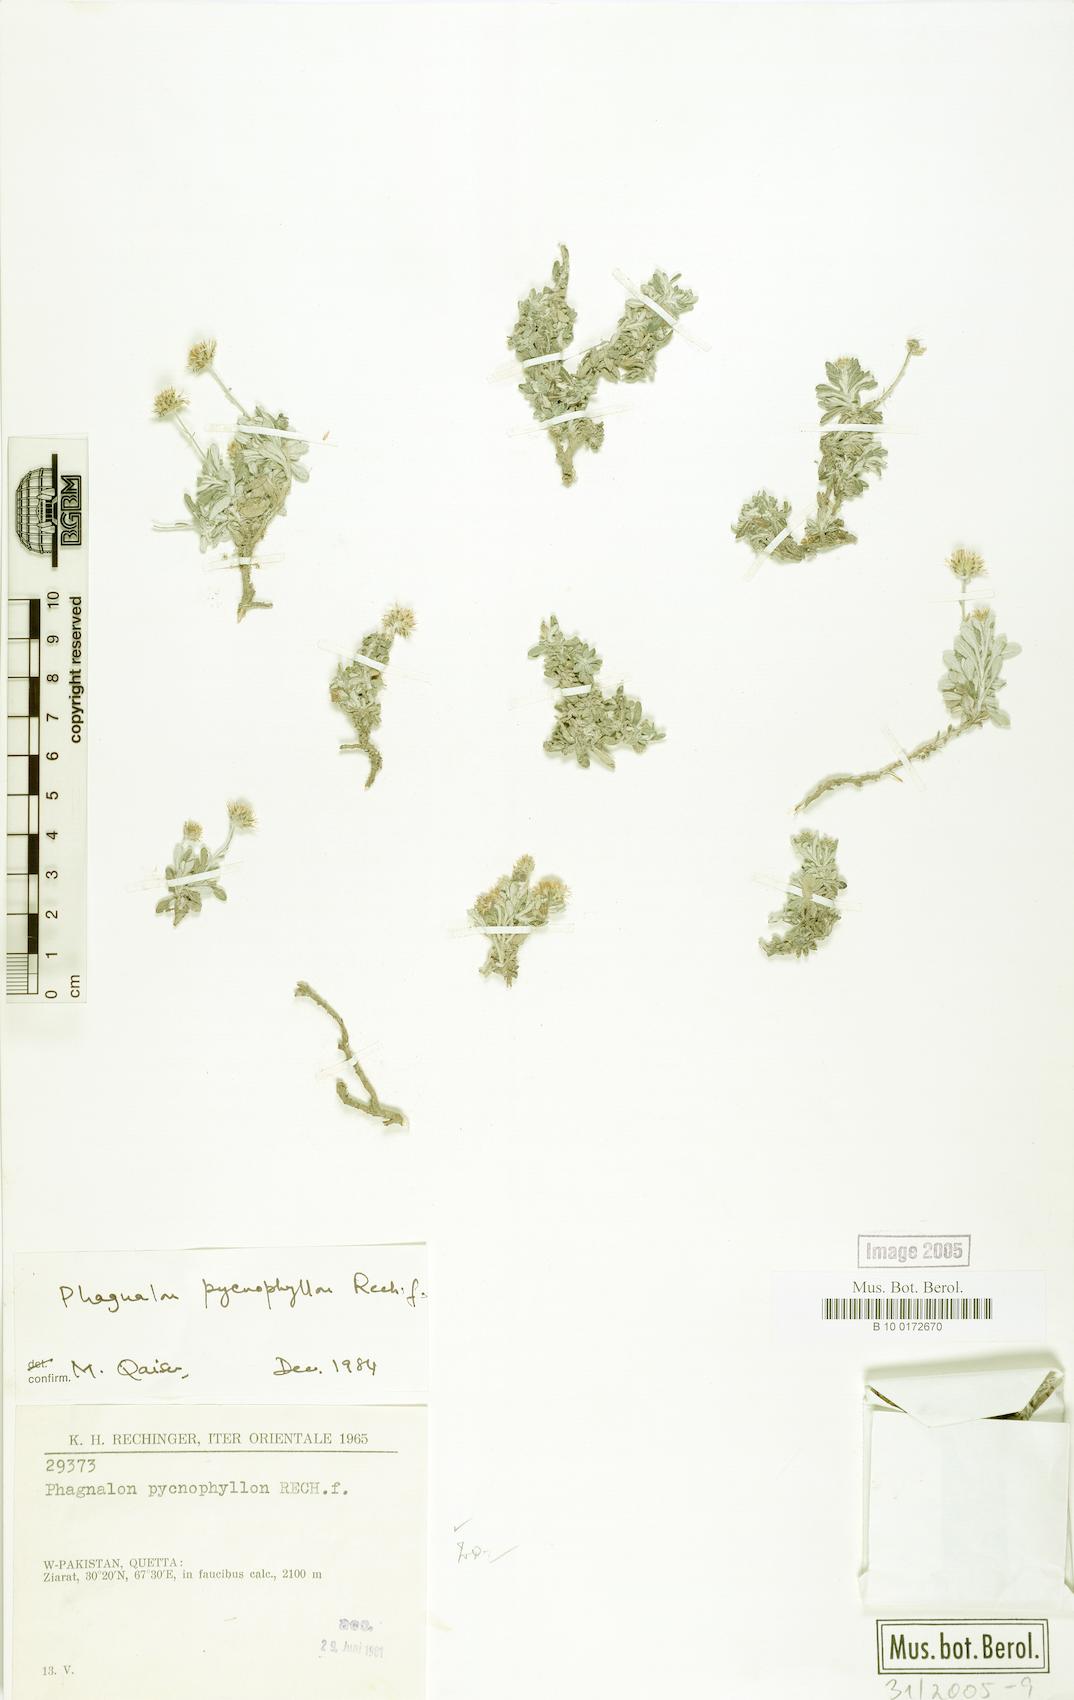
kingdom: Plantae
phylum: Tracheophyta
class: Magnoliopsida
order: Asterales
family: Asteraceae
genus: Phagnalon
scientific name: Phagnalon pycnophyllon
